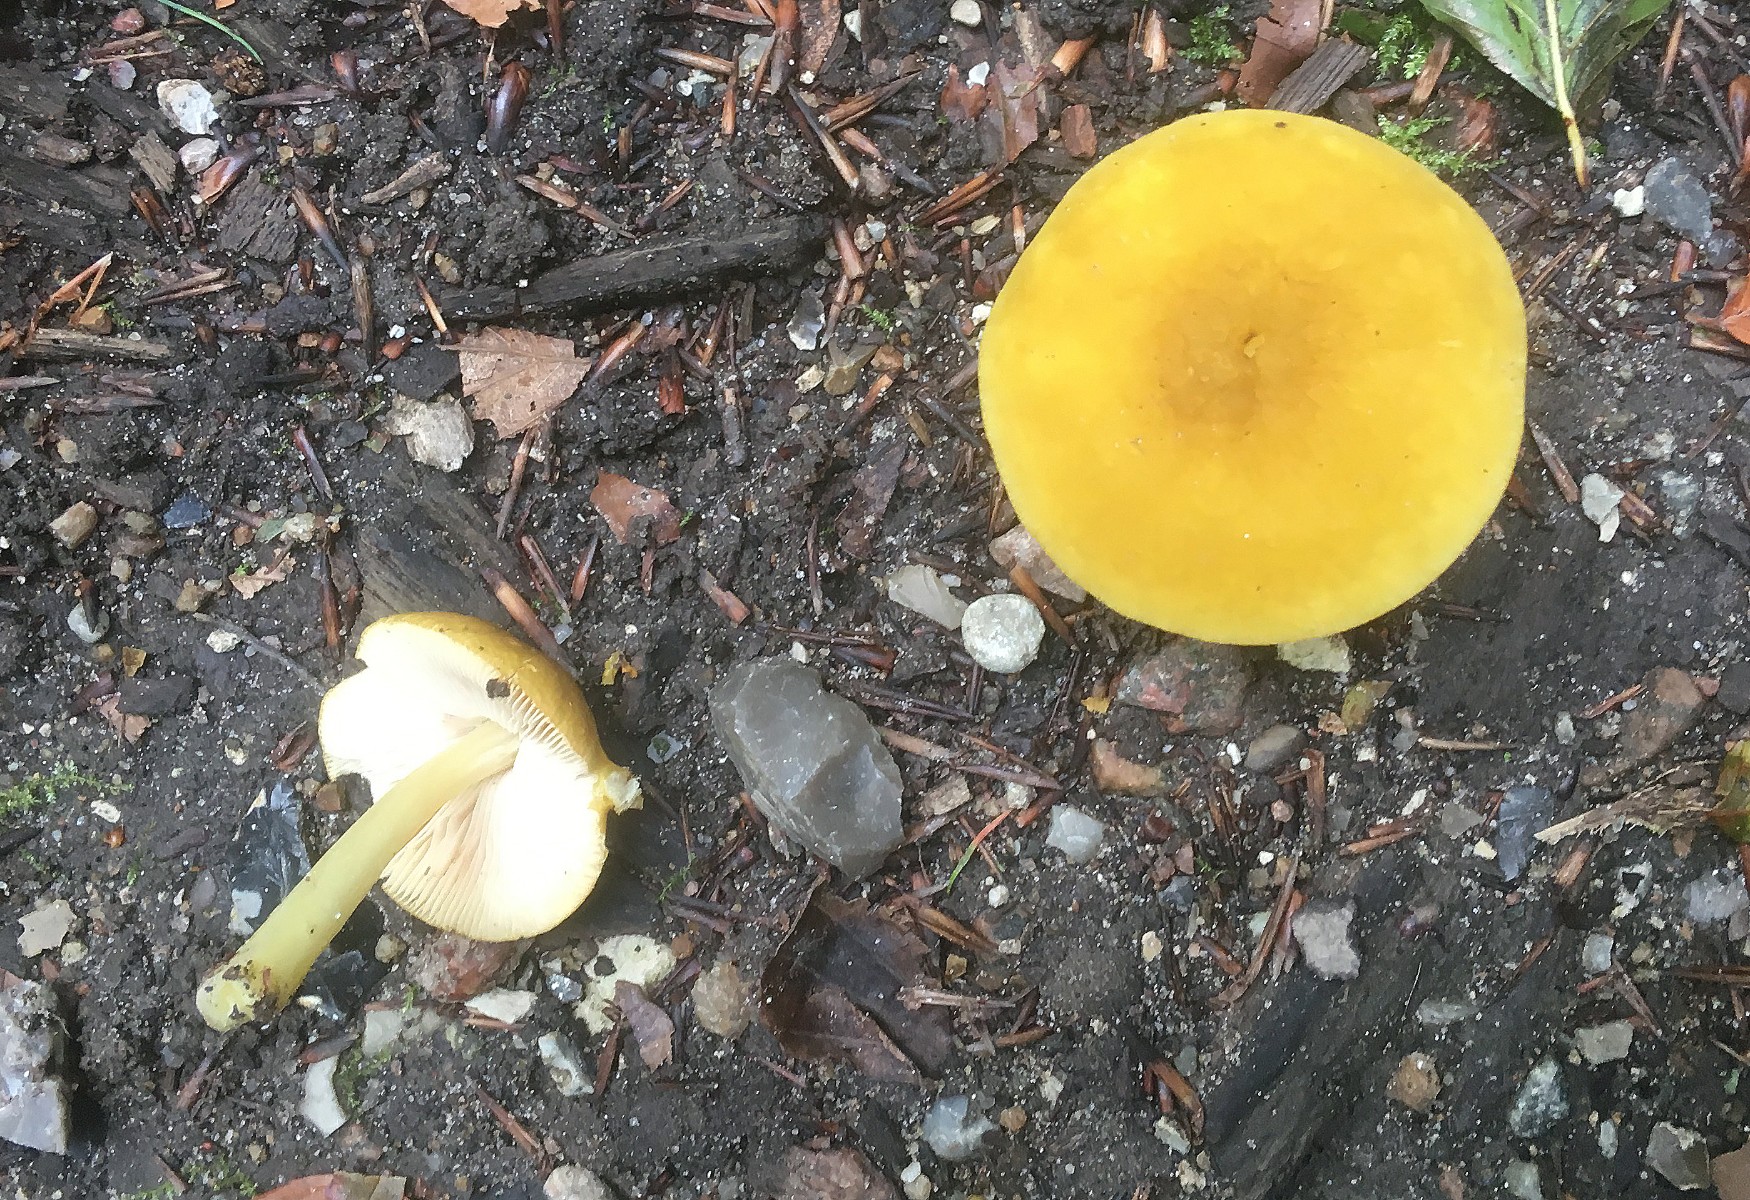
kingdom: Fungi
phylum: Basidiomycota
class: Agaricomycetes
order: Agaricales
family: Pluteaceae
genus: Pluteus
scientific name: Pluteus romellii
